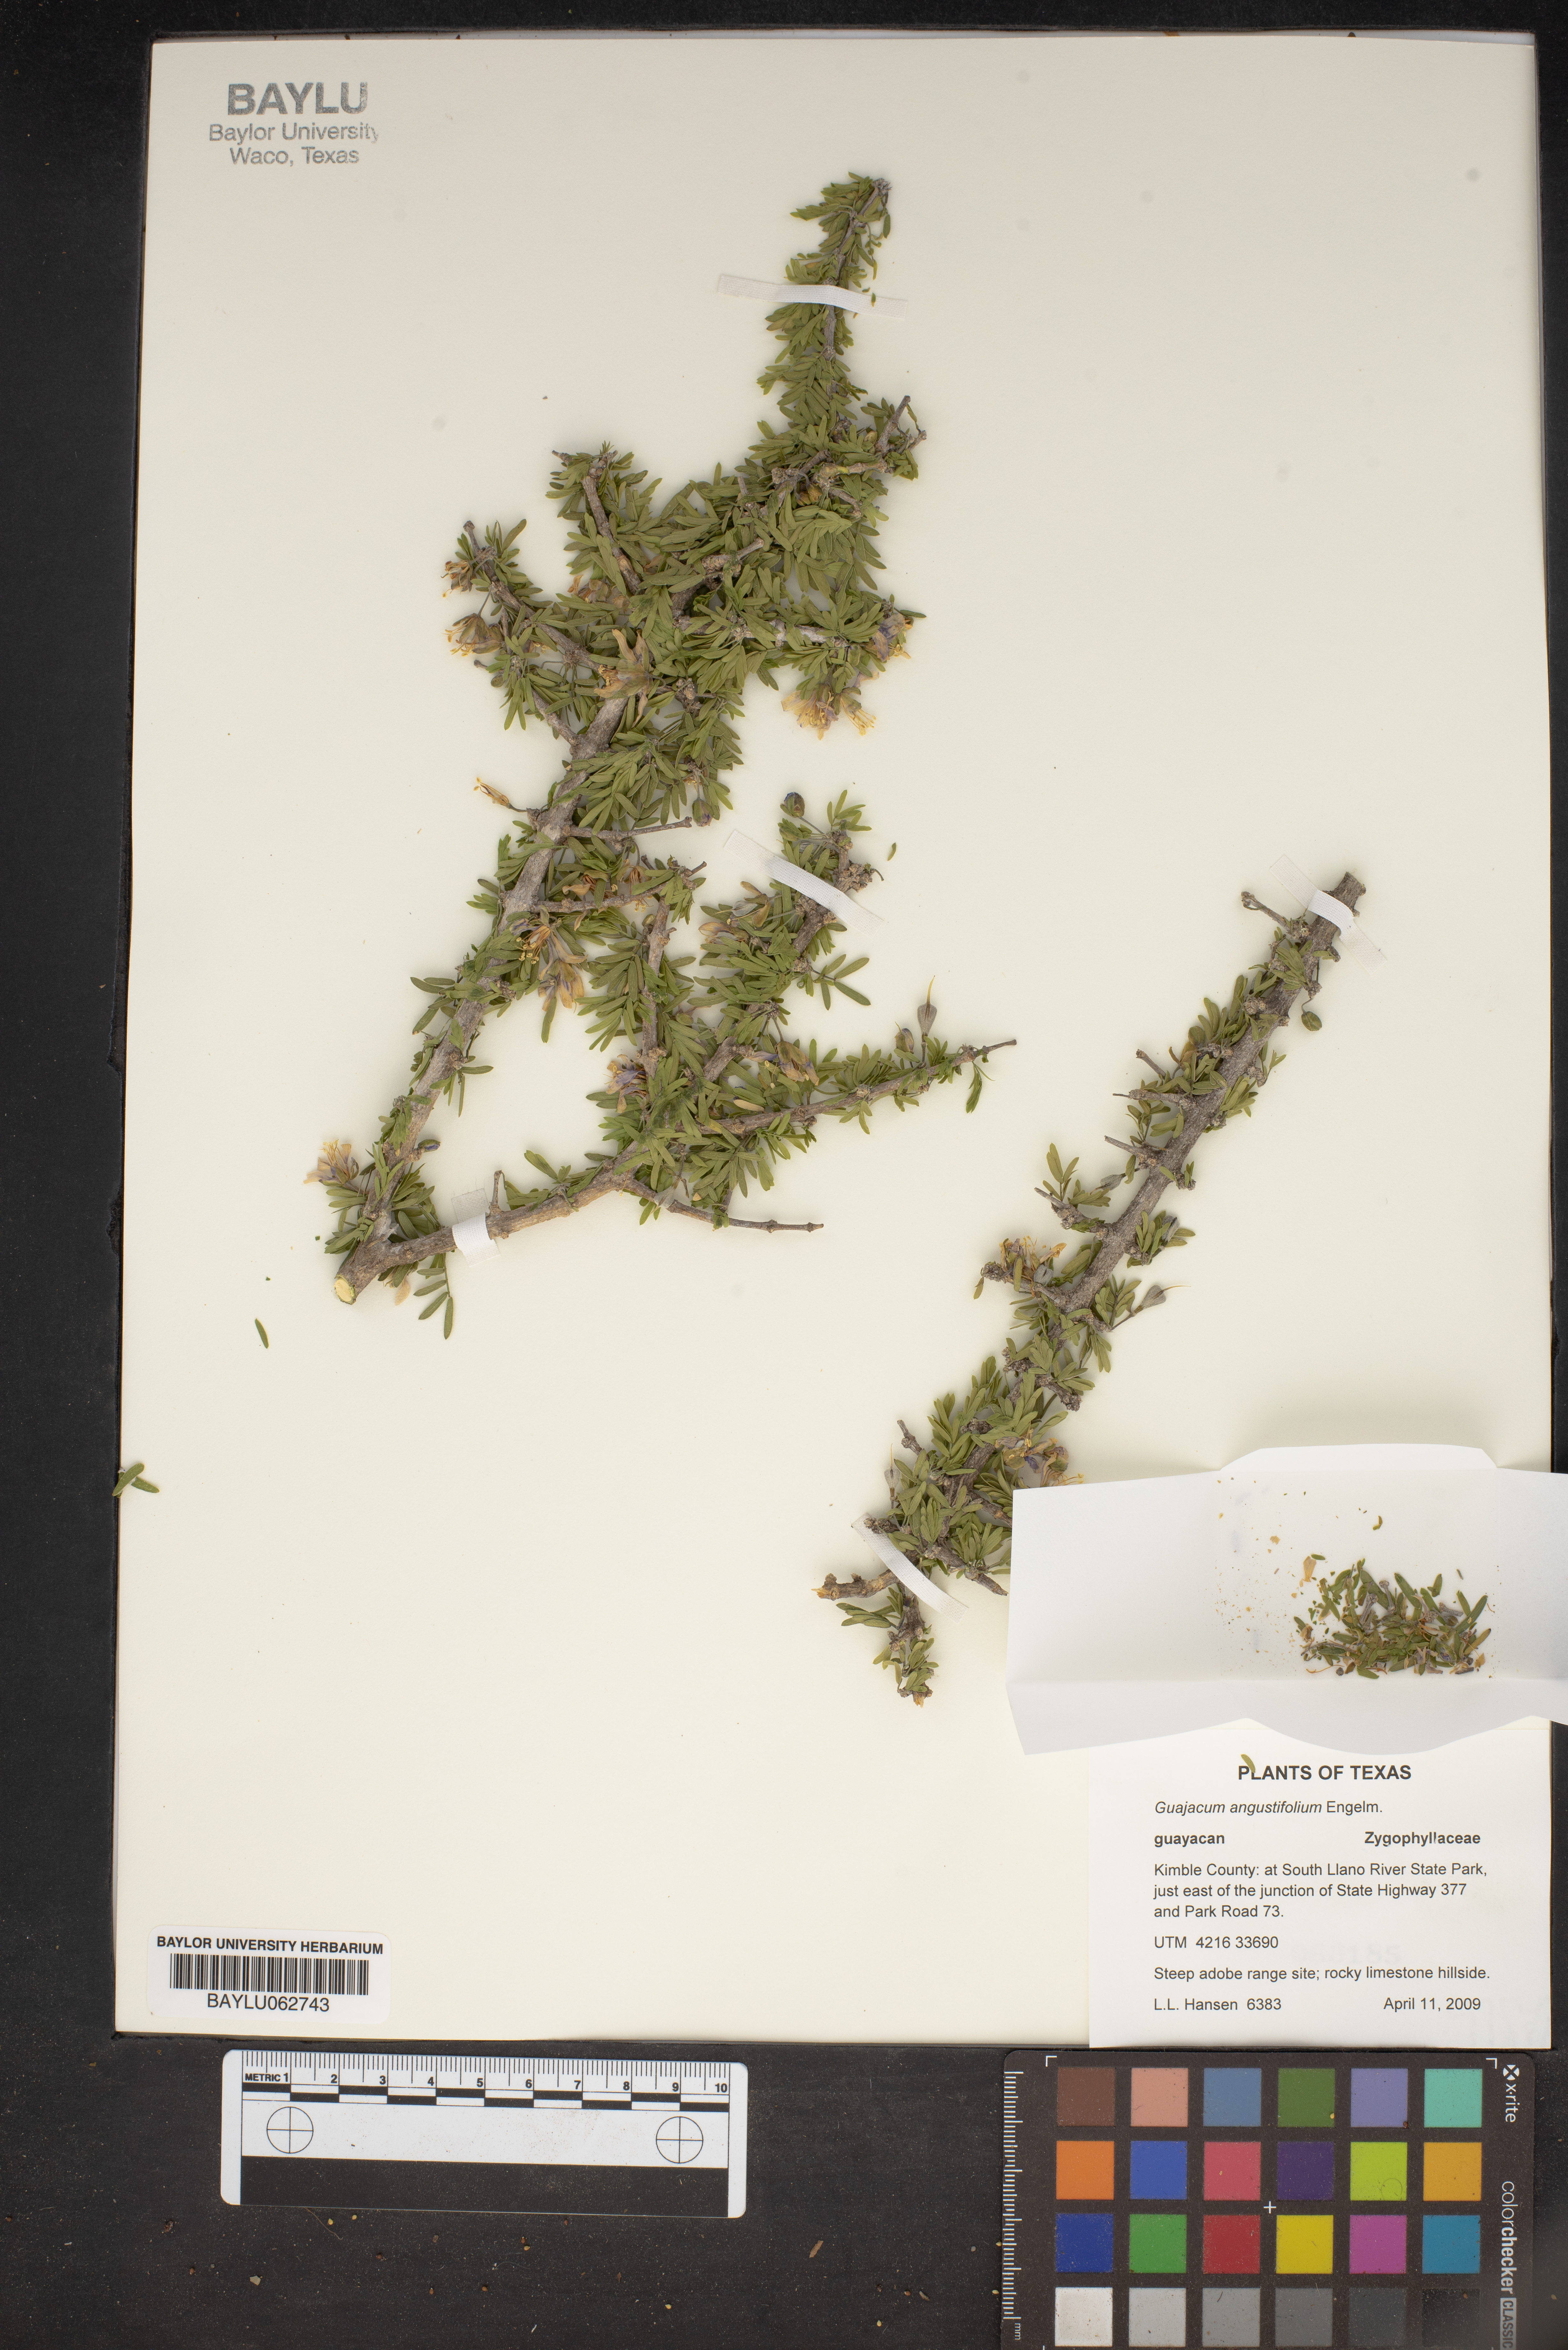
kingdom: Plantae
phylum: Tracheophyta
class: Magnoliopsida
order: Zygophyllales
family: Zygophyllaceae
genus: Porlieria
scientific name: Porlieria angustifolia
